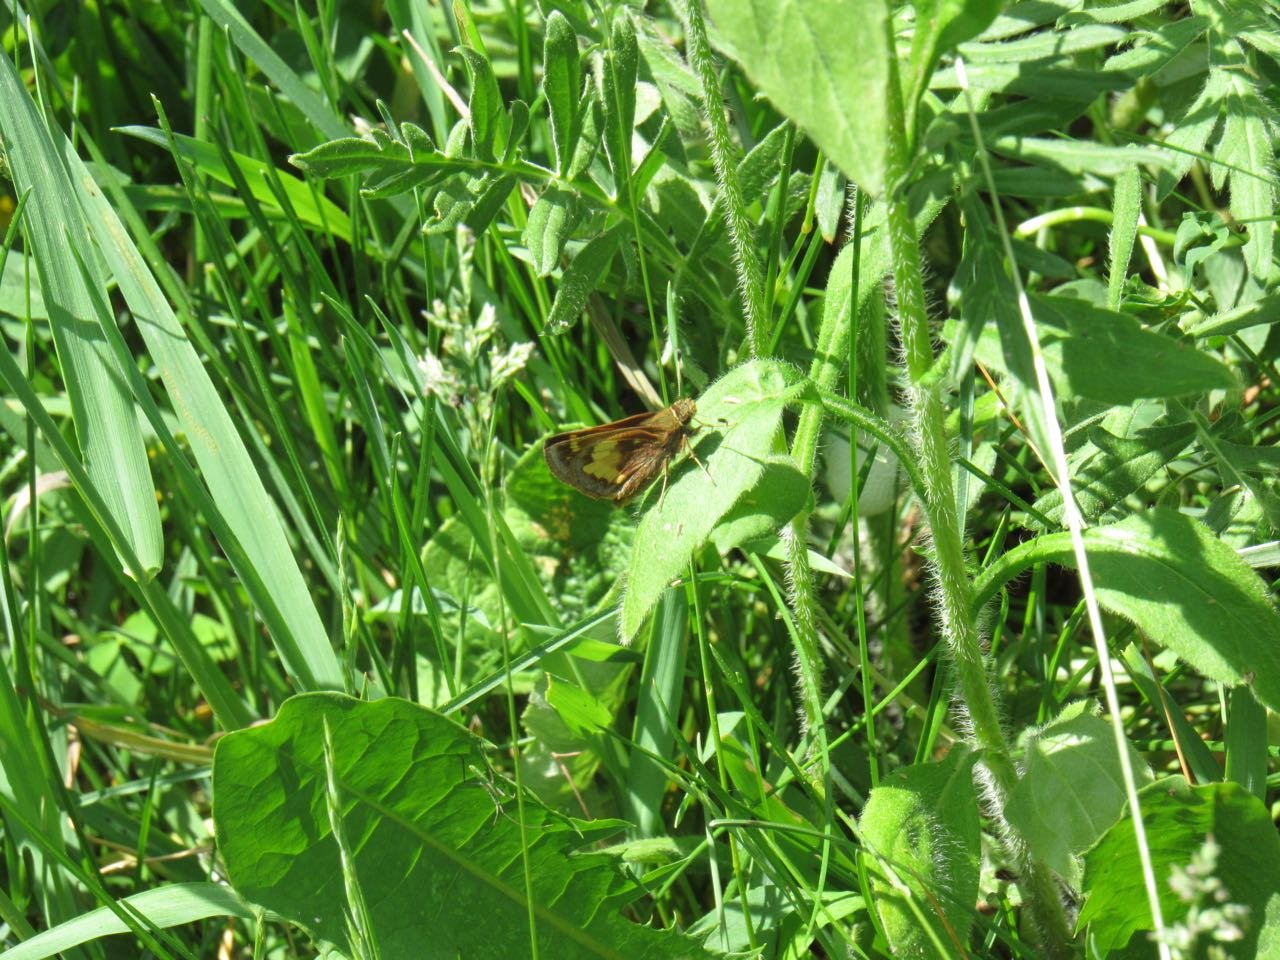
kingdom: Animalia
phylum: Arthropoda
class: Insecta
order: Lepidoptera
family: Hesperiidae
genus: Lon
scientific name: Lon hobomok
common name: Hobomok Skipper
